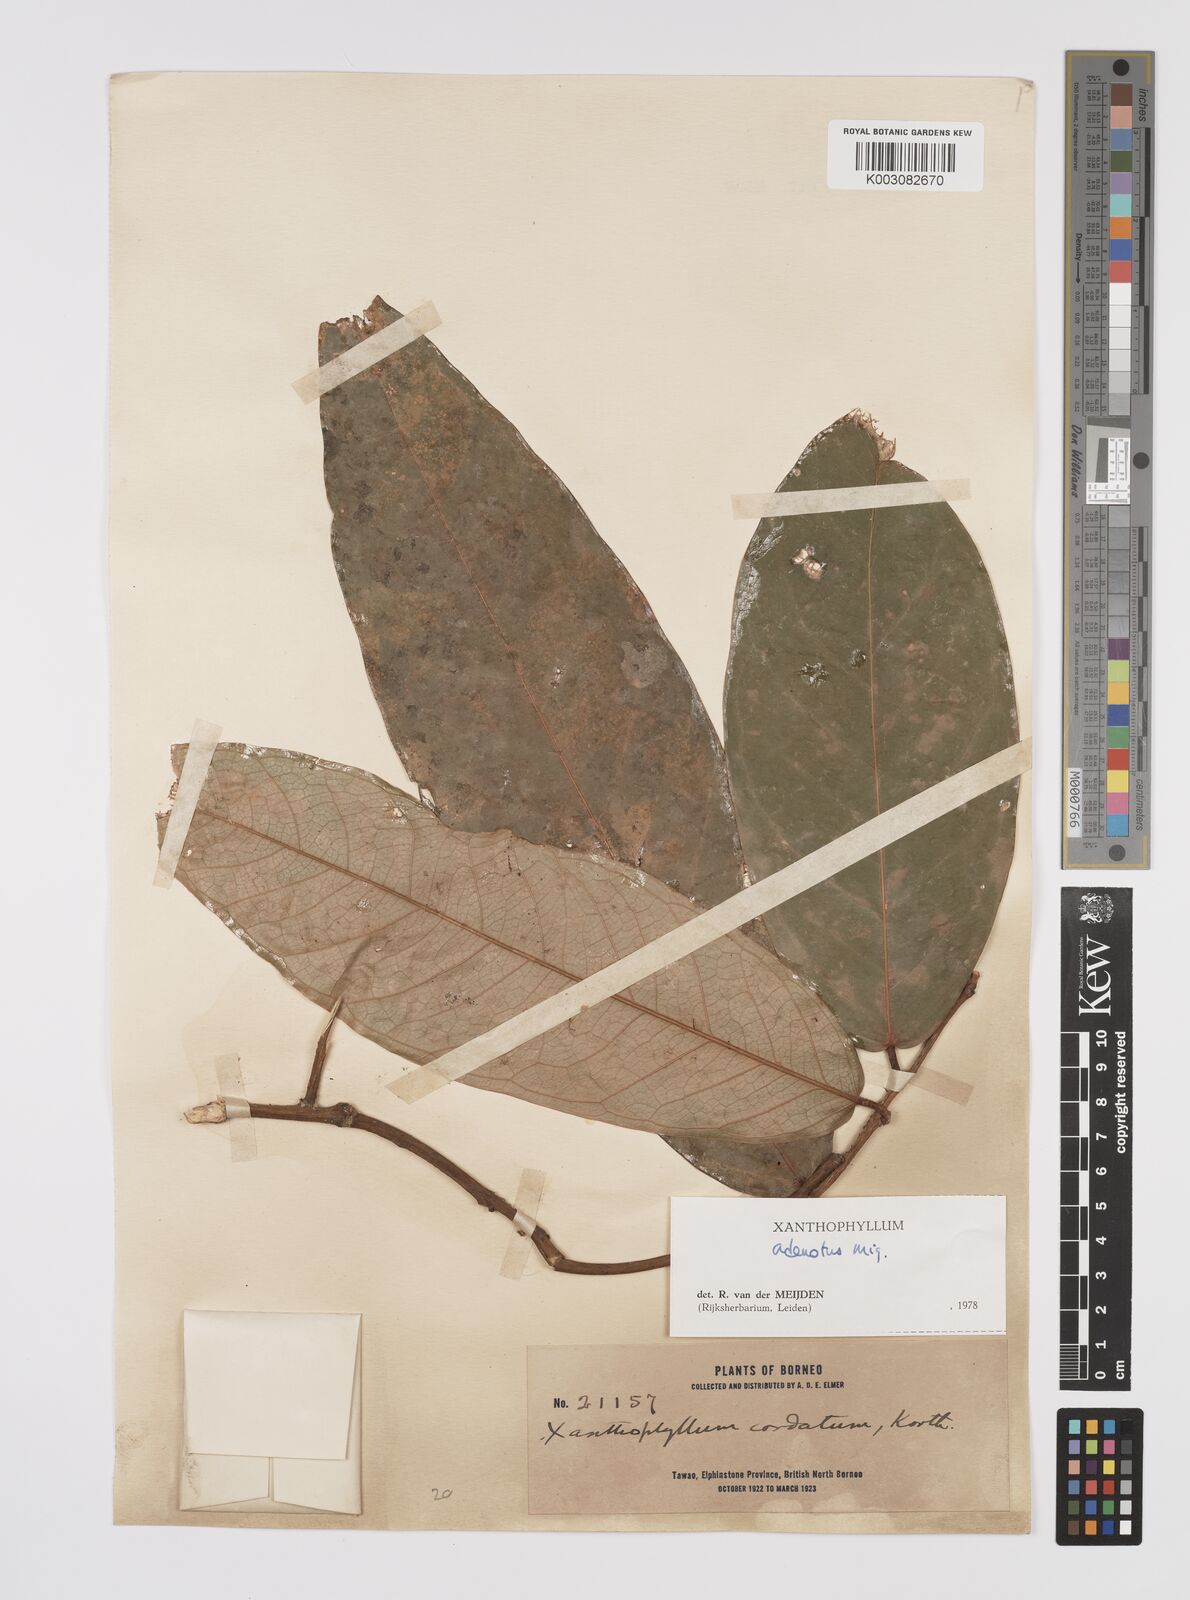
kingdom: Plantae
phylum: Tracheophyta
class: Magnoliopsida
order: Fabales
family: Polygalaceae
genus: Xanthophyllum
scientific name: Xanthophyllum adenotus
